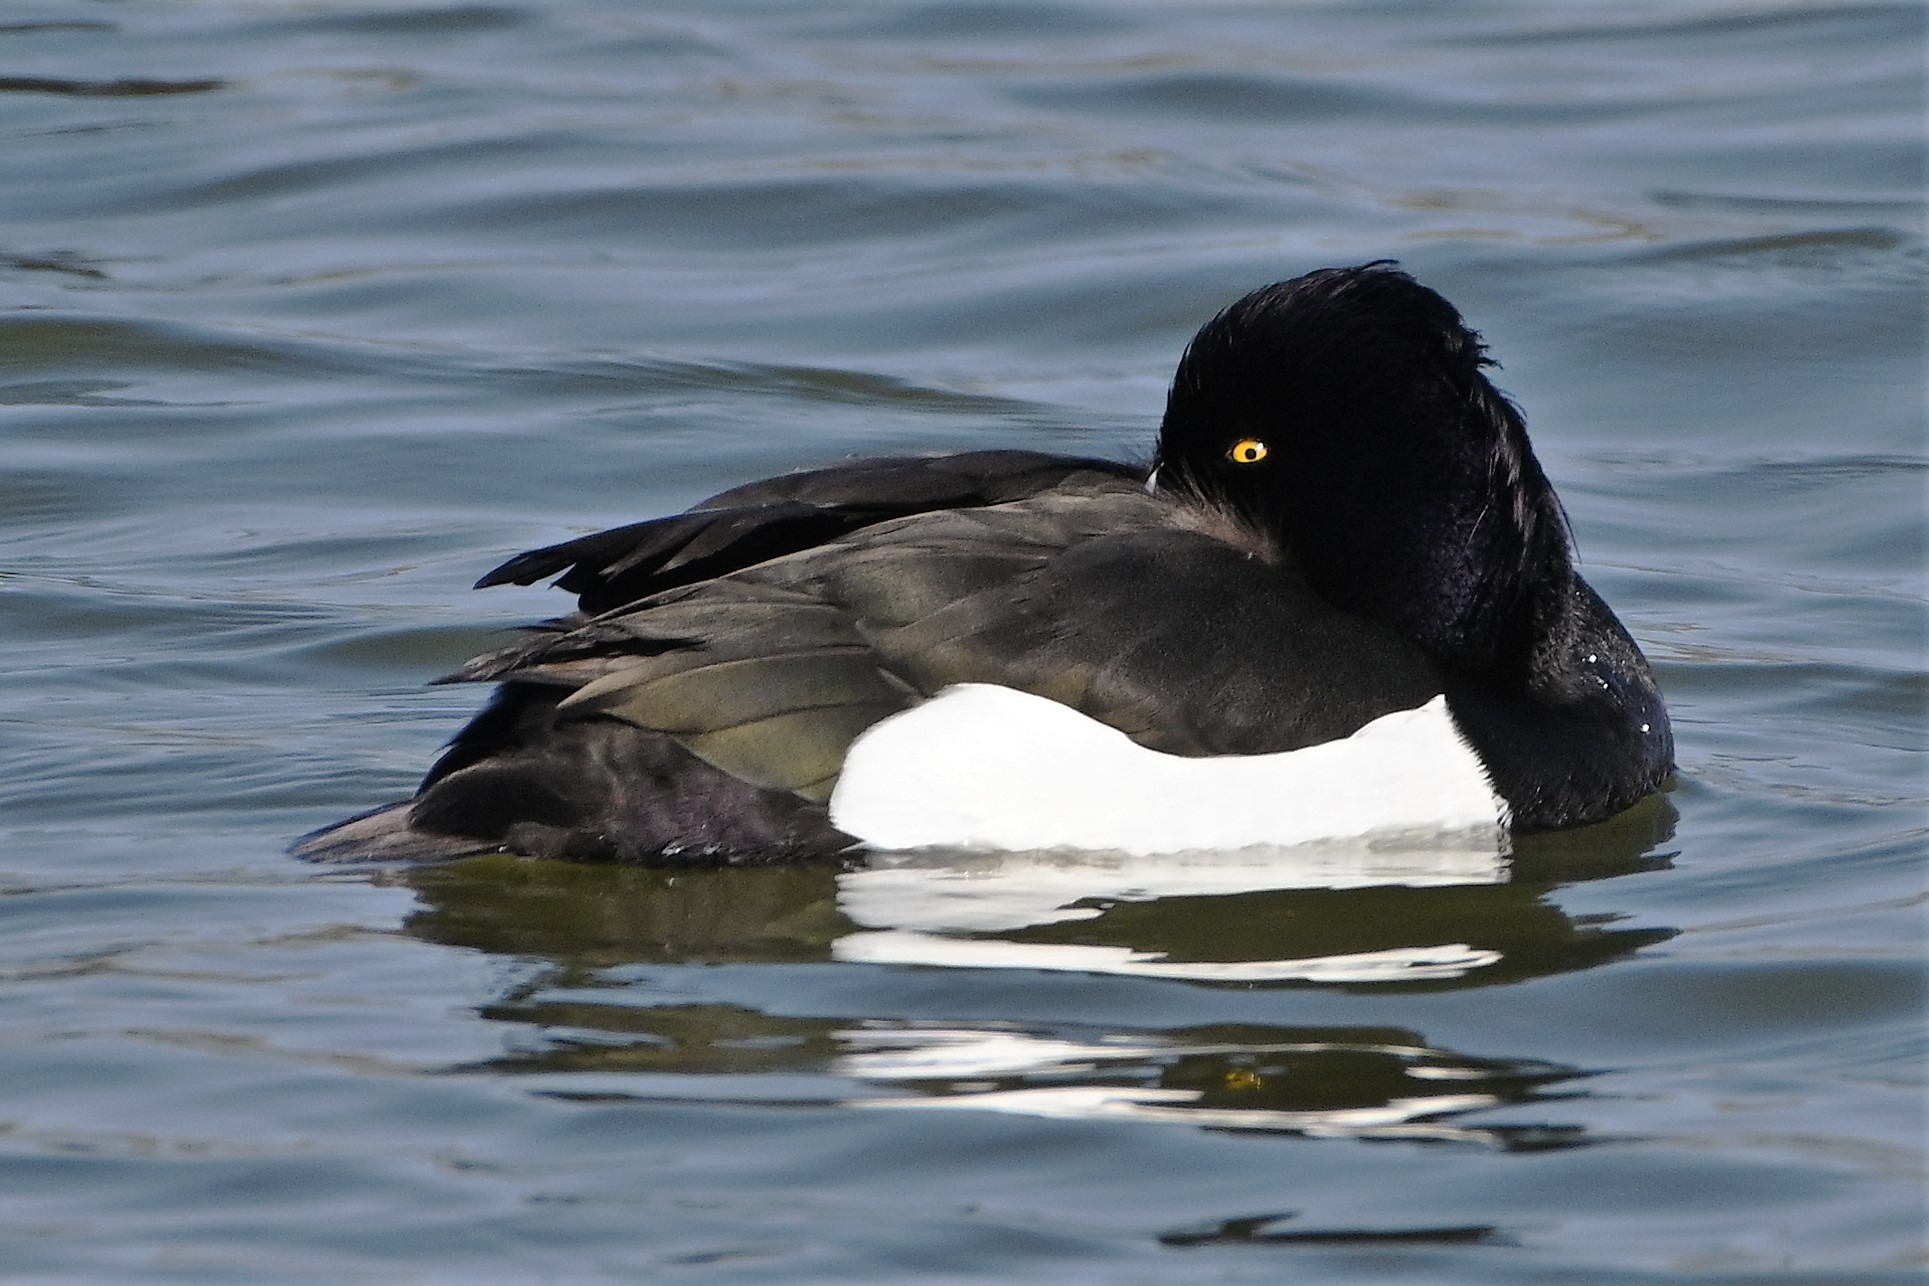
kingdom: Animalia
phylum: Chordata
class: Aves
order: Anseriformes
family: Anatidae
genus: Aythya
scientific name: Aythya fuligula
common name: Troldand
